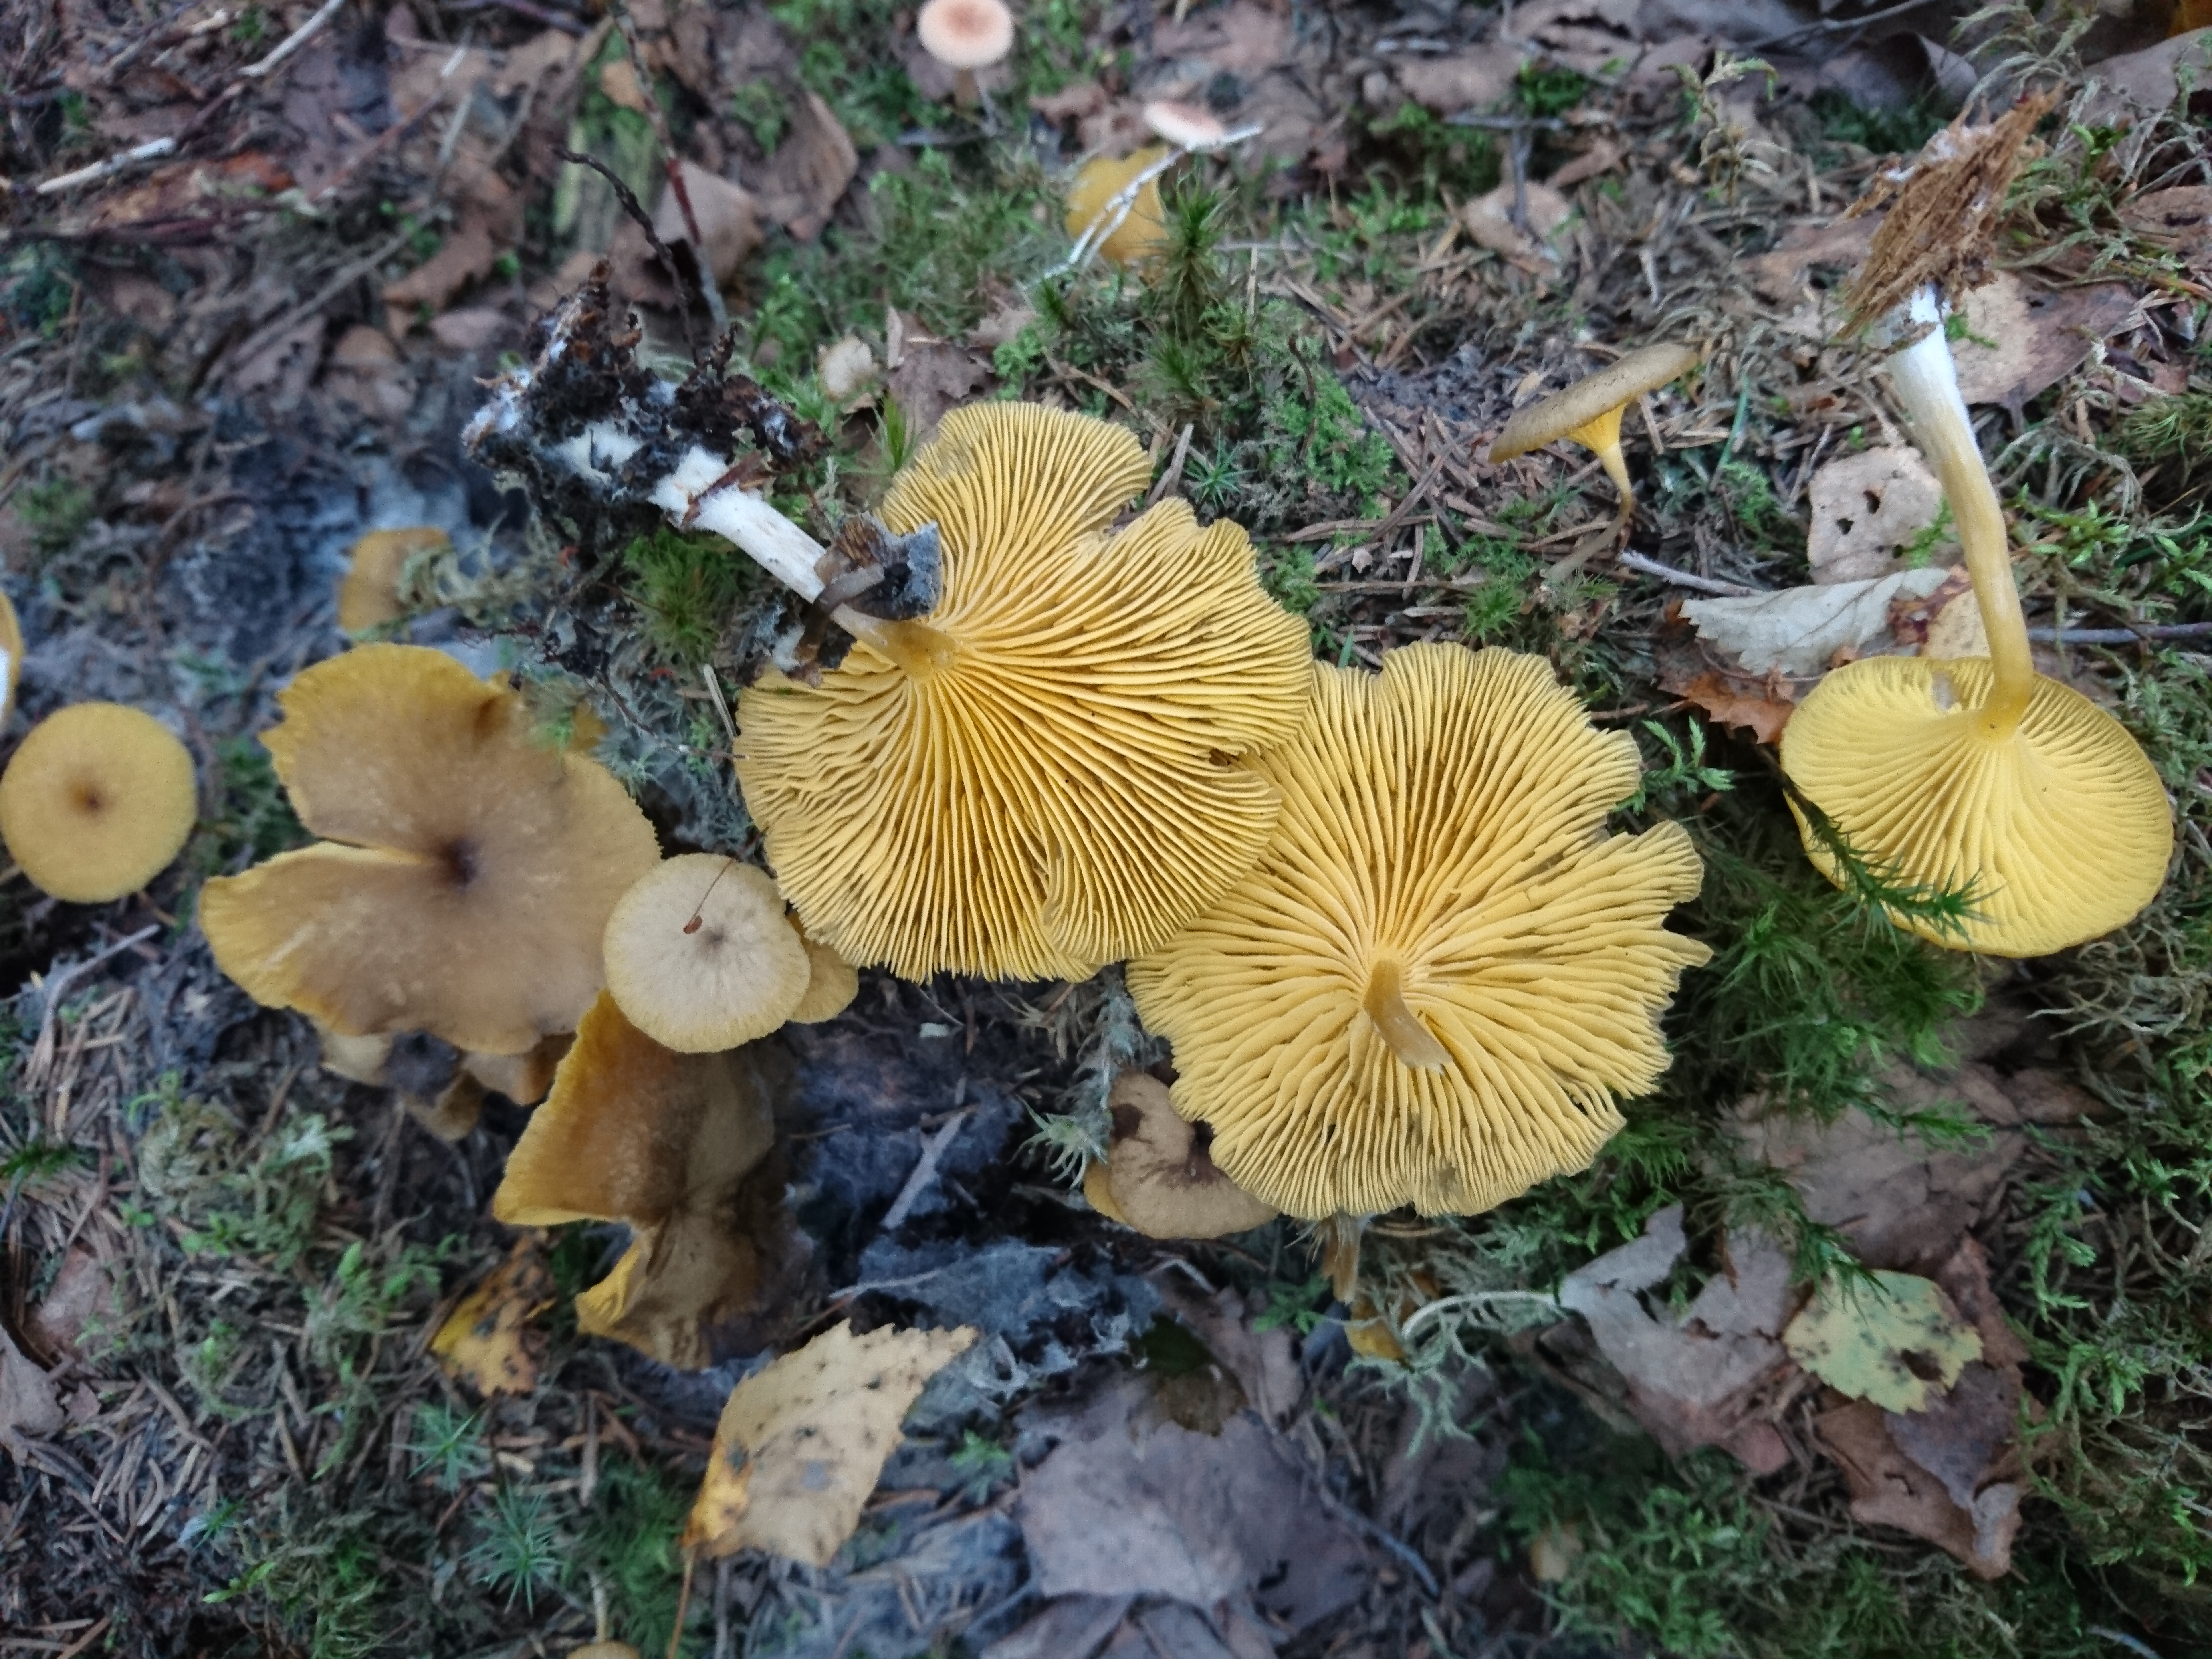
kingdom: Fungi
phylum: Basidiomycota
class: Agaricomycetes
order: Agaricales
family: Hygrophoraceae
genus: Chrysomphalina
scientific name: Chrysomphalina chrysophylla
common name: Golden navel
